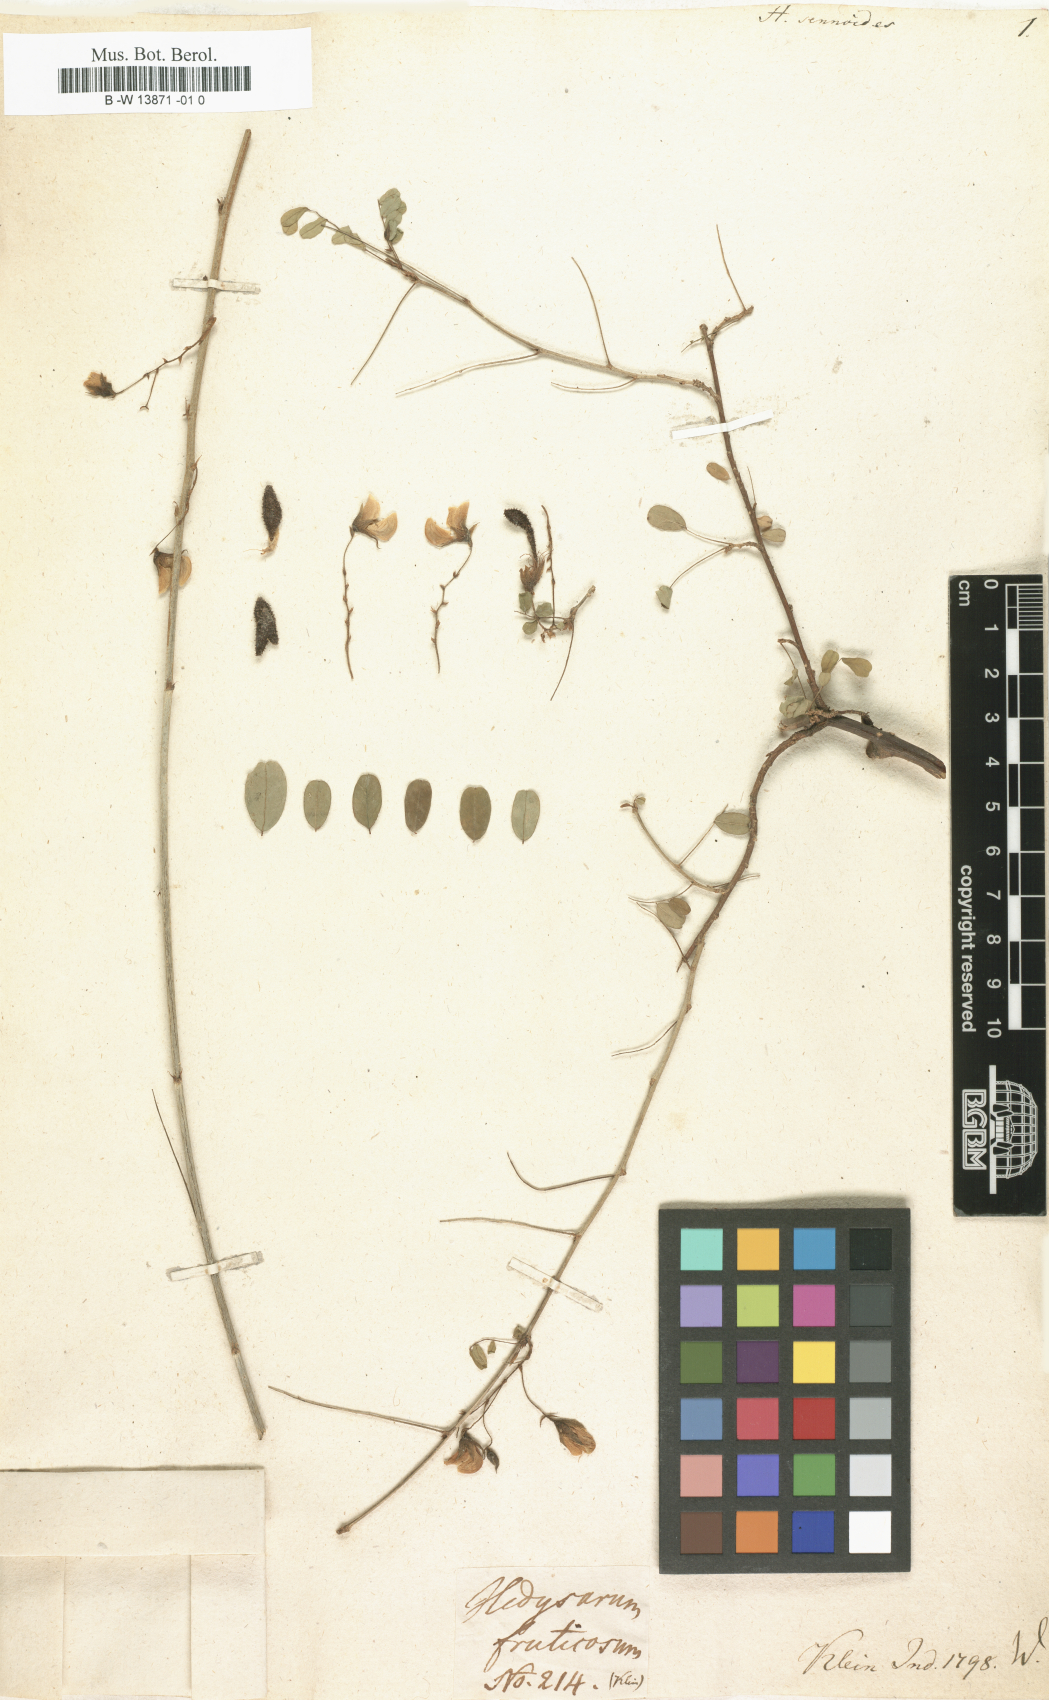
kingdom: Plantae
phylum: Tracheophyta
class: Magnoliopsida
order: Fabales
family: Fabaceae
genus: Ormocarpum
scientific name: Ormocarpum sennoides
